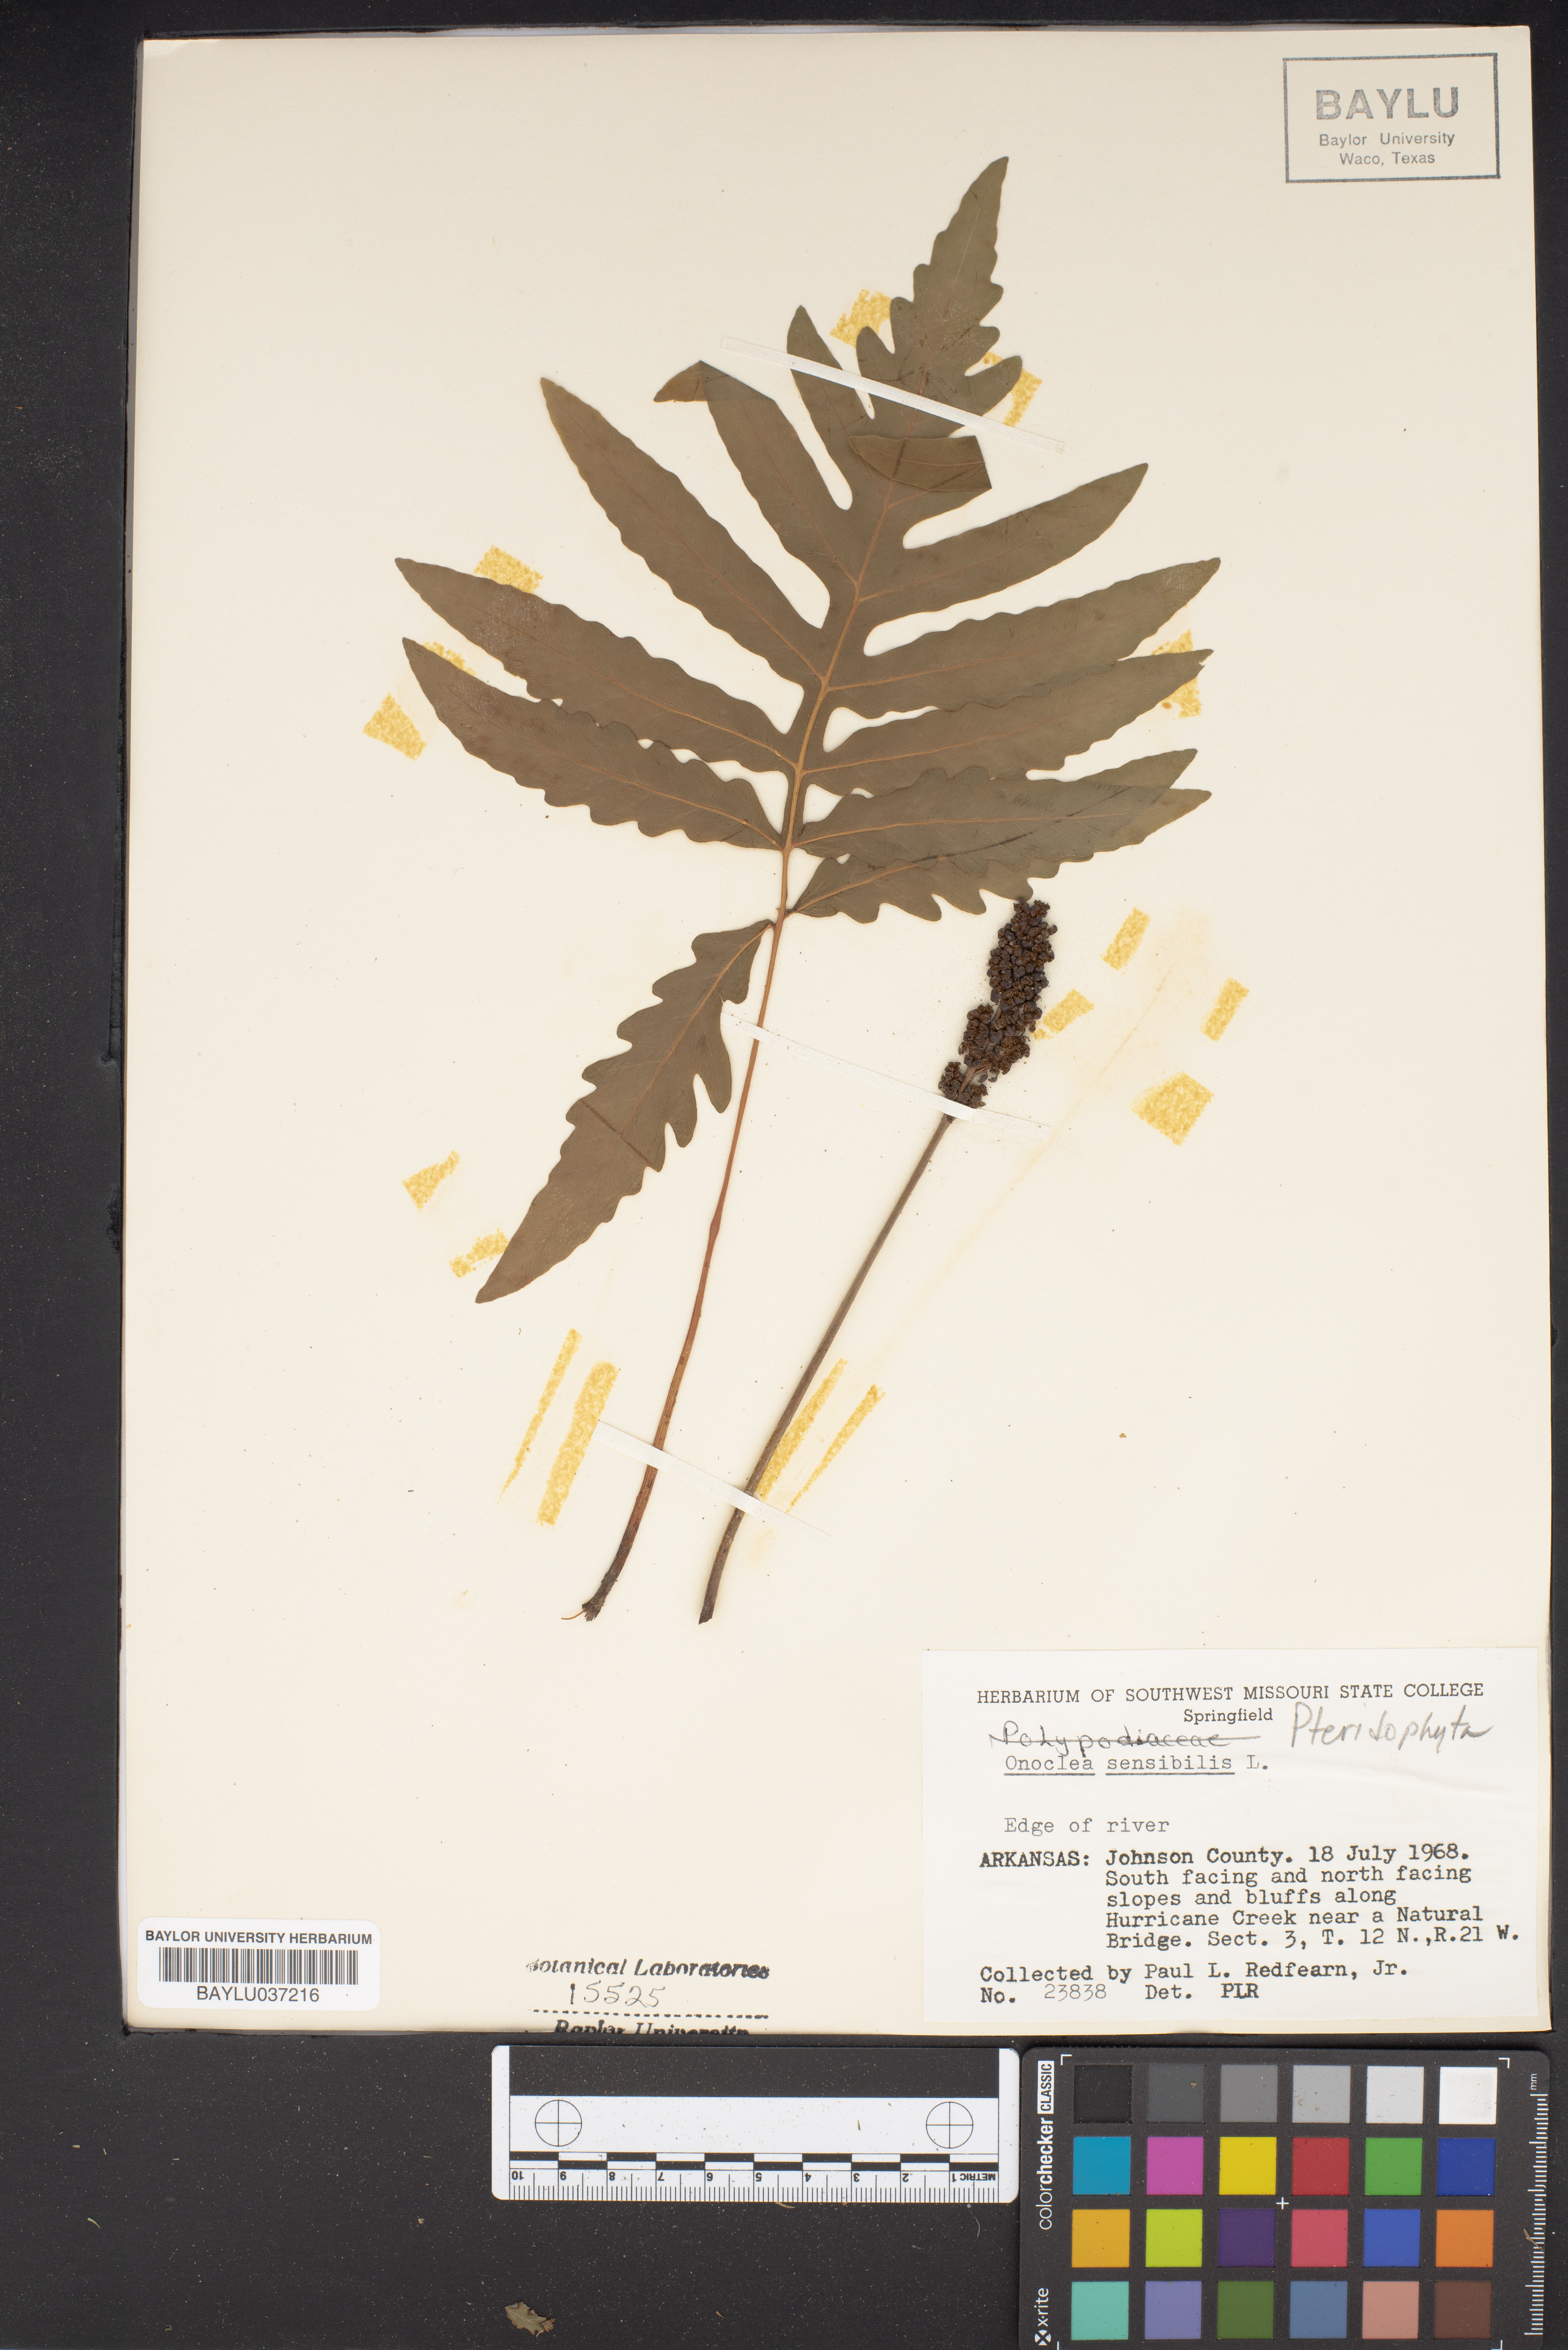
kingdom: Plantae
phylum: Tracheophyta
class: Polypodiopsida
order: Polypodiales
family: Onocleaceae
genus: Onoclea
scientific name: Onoclea sensibilis
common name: Sensitive fern
